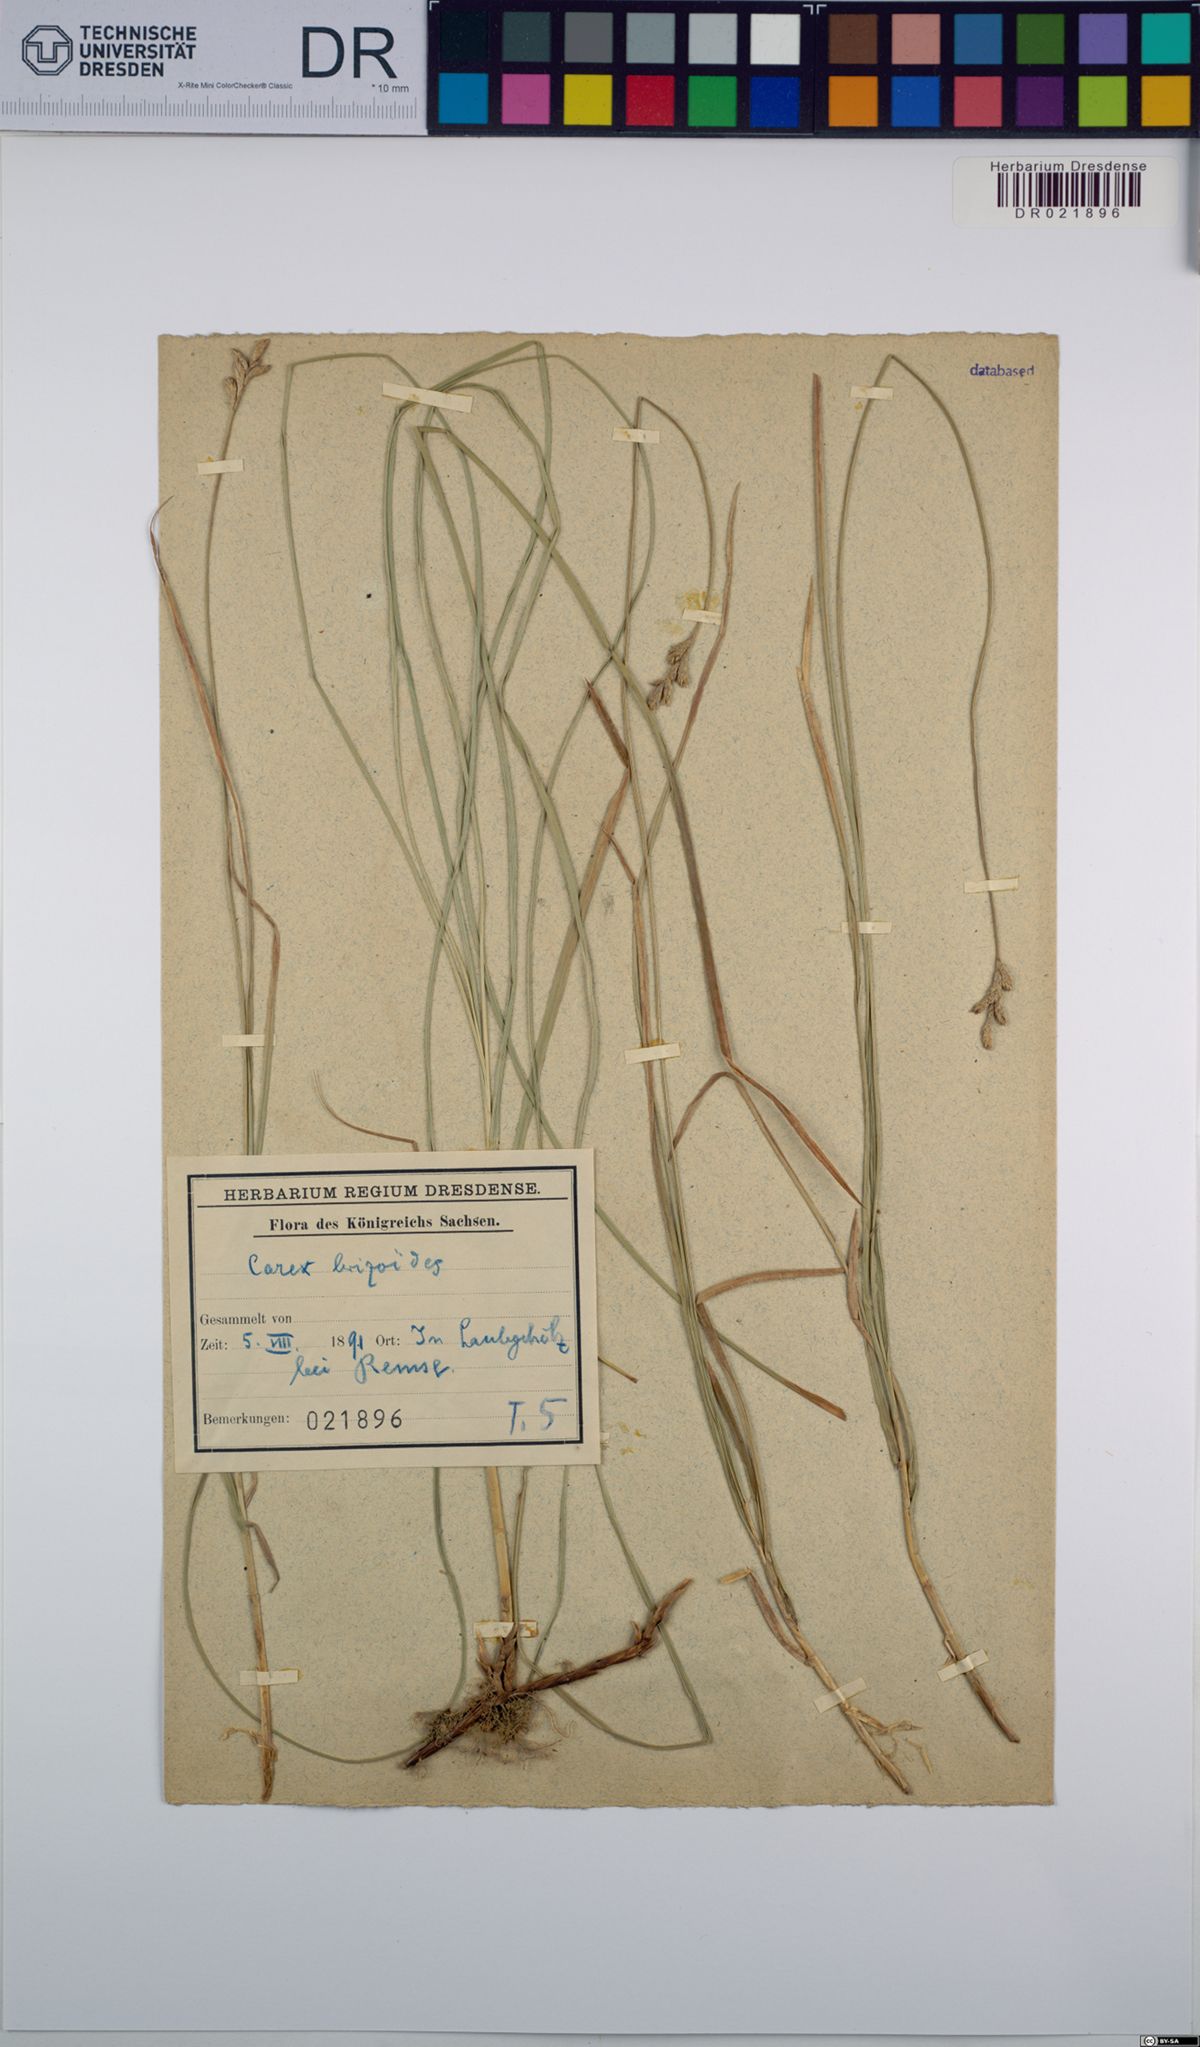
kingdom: Plantae
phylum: Tracheophyta
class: Liliopsida
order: Poales
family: Cyperaceae
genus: Carex
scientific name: Carex brizoides
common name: Quaking-grass sedge
